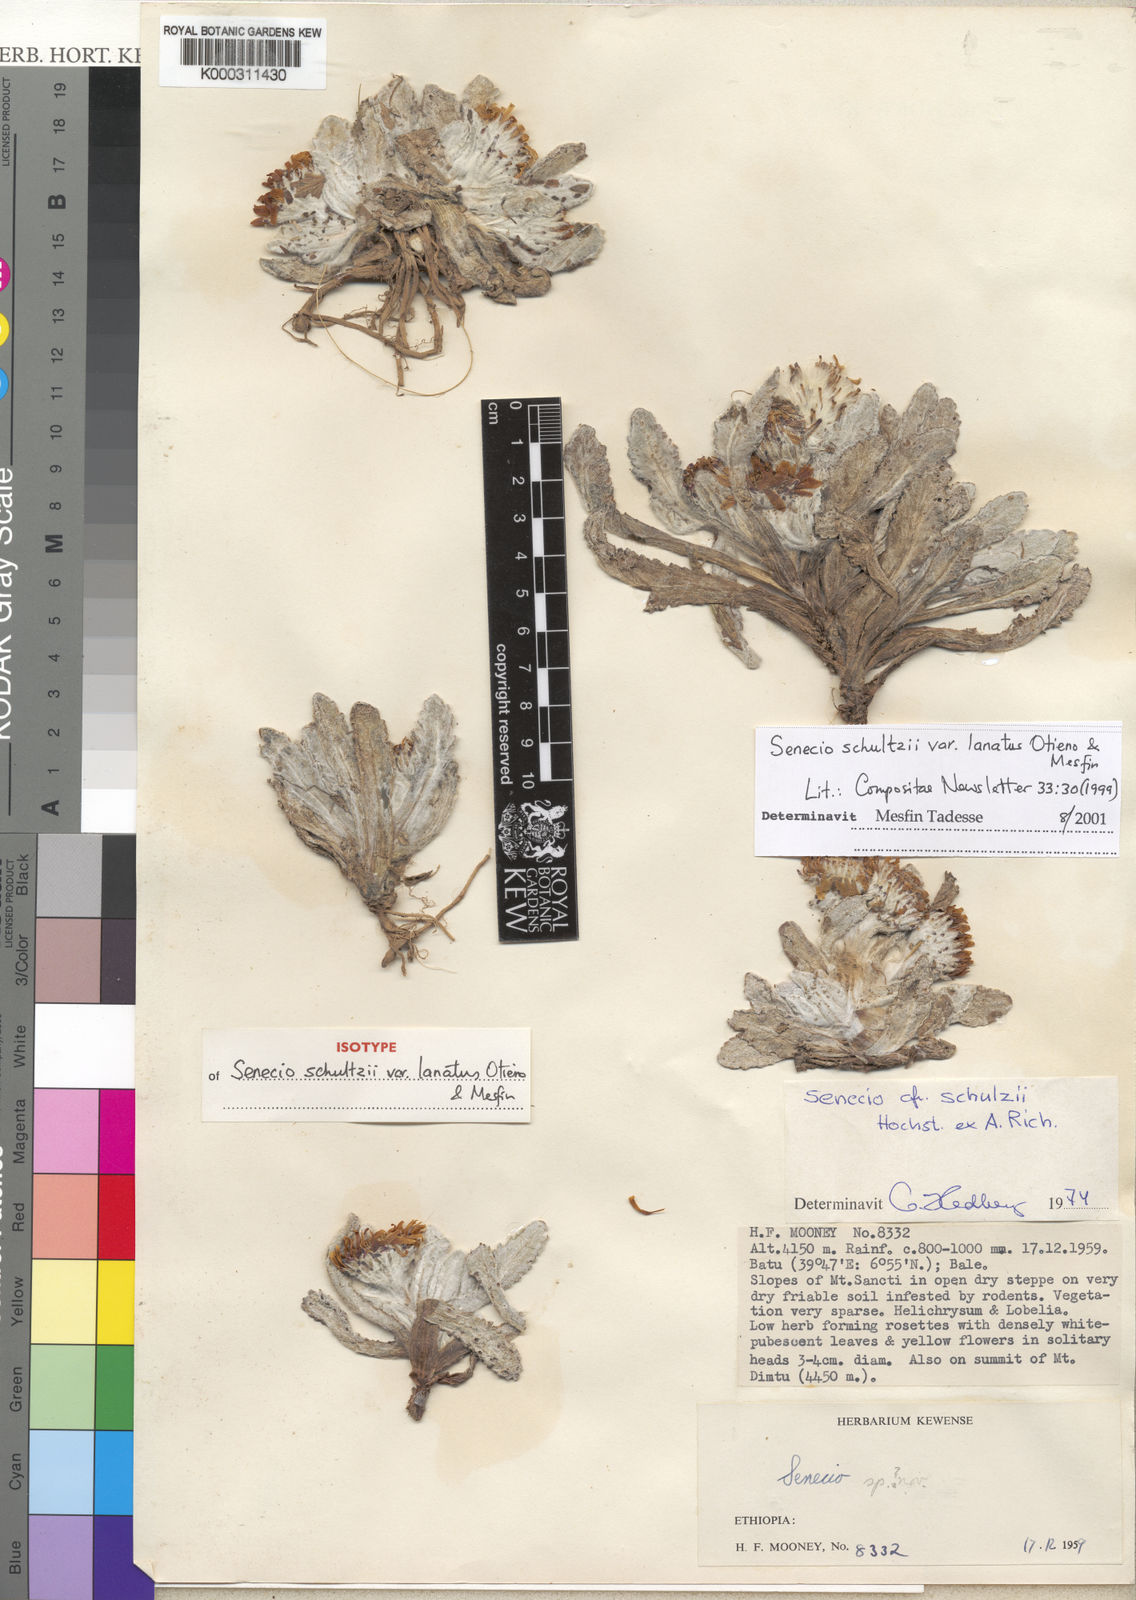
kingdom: Plantae
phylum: Tracheophyta
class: Magnoliopsida
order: Asterales
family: Asteraceae
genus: Senecio
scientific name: Senecio schultzii
